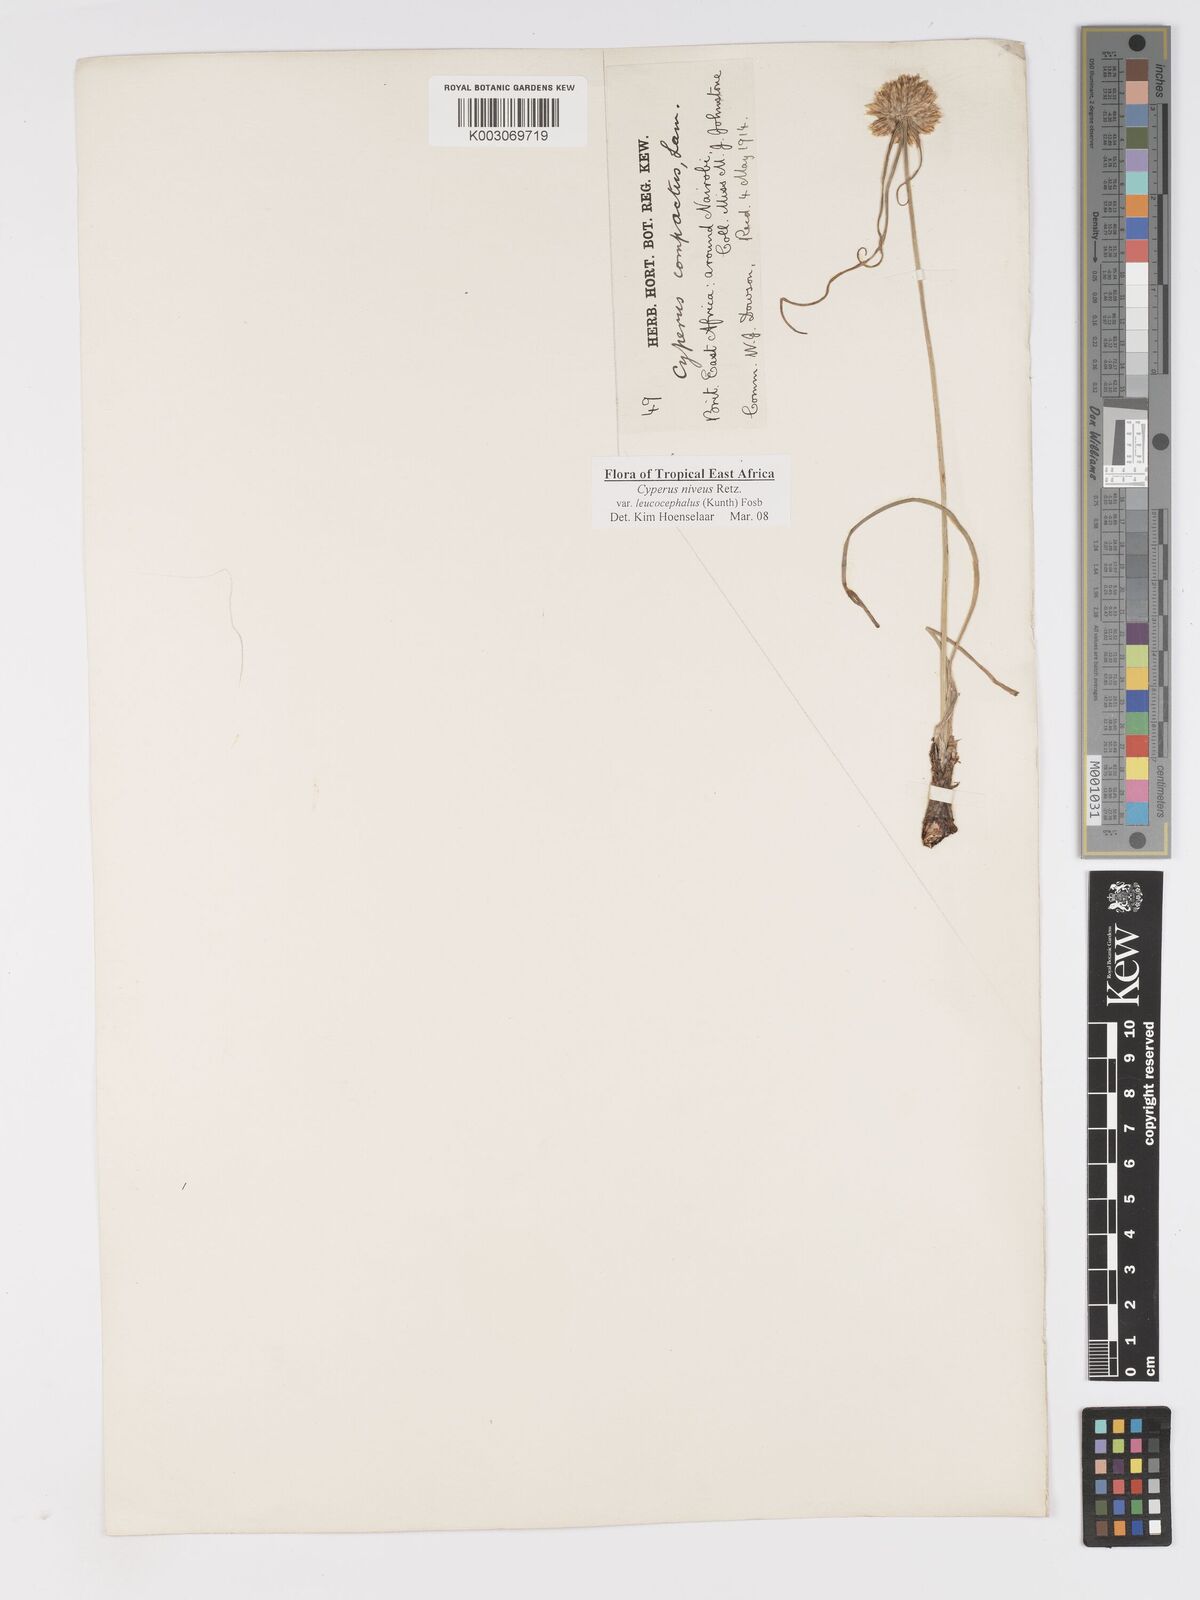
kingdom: Plantae
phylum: Tracheophyta
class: Liliopsida
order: Poales
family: Cyperaceae
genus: Cyperus
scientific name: Cyperus niveus
